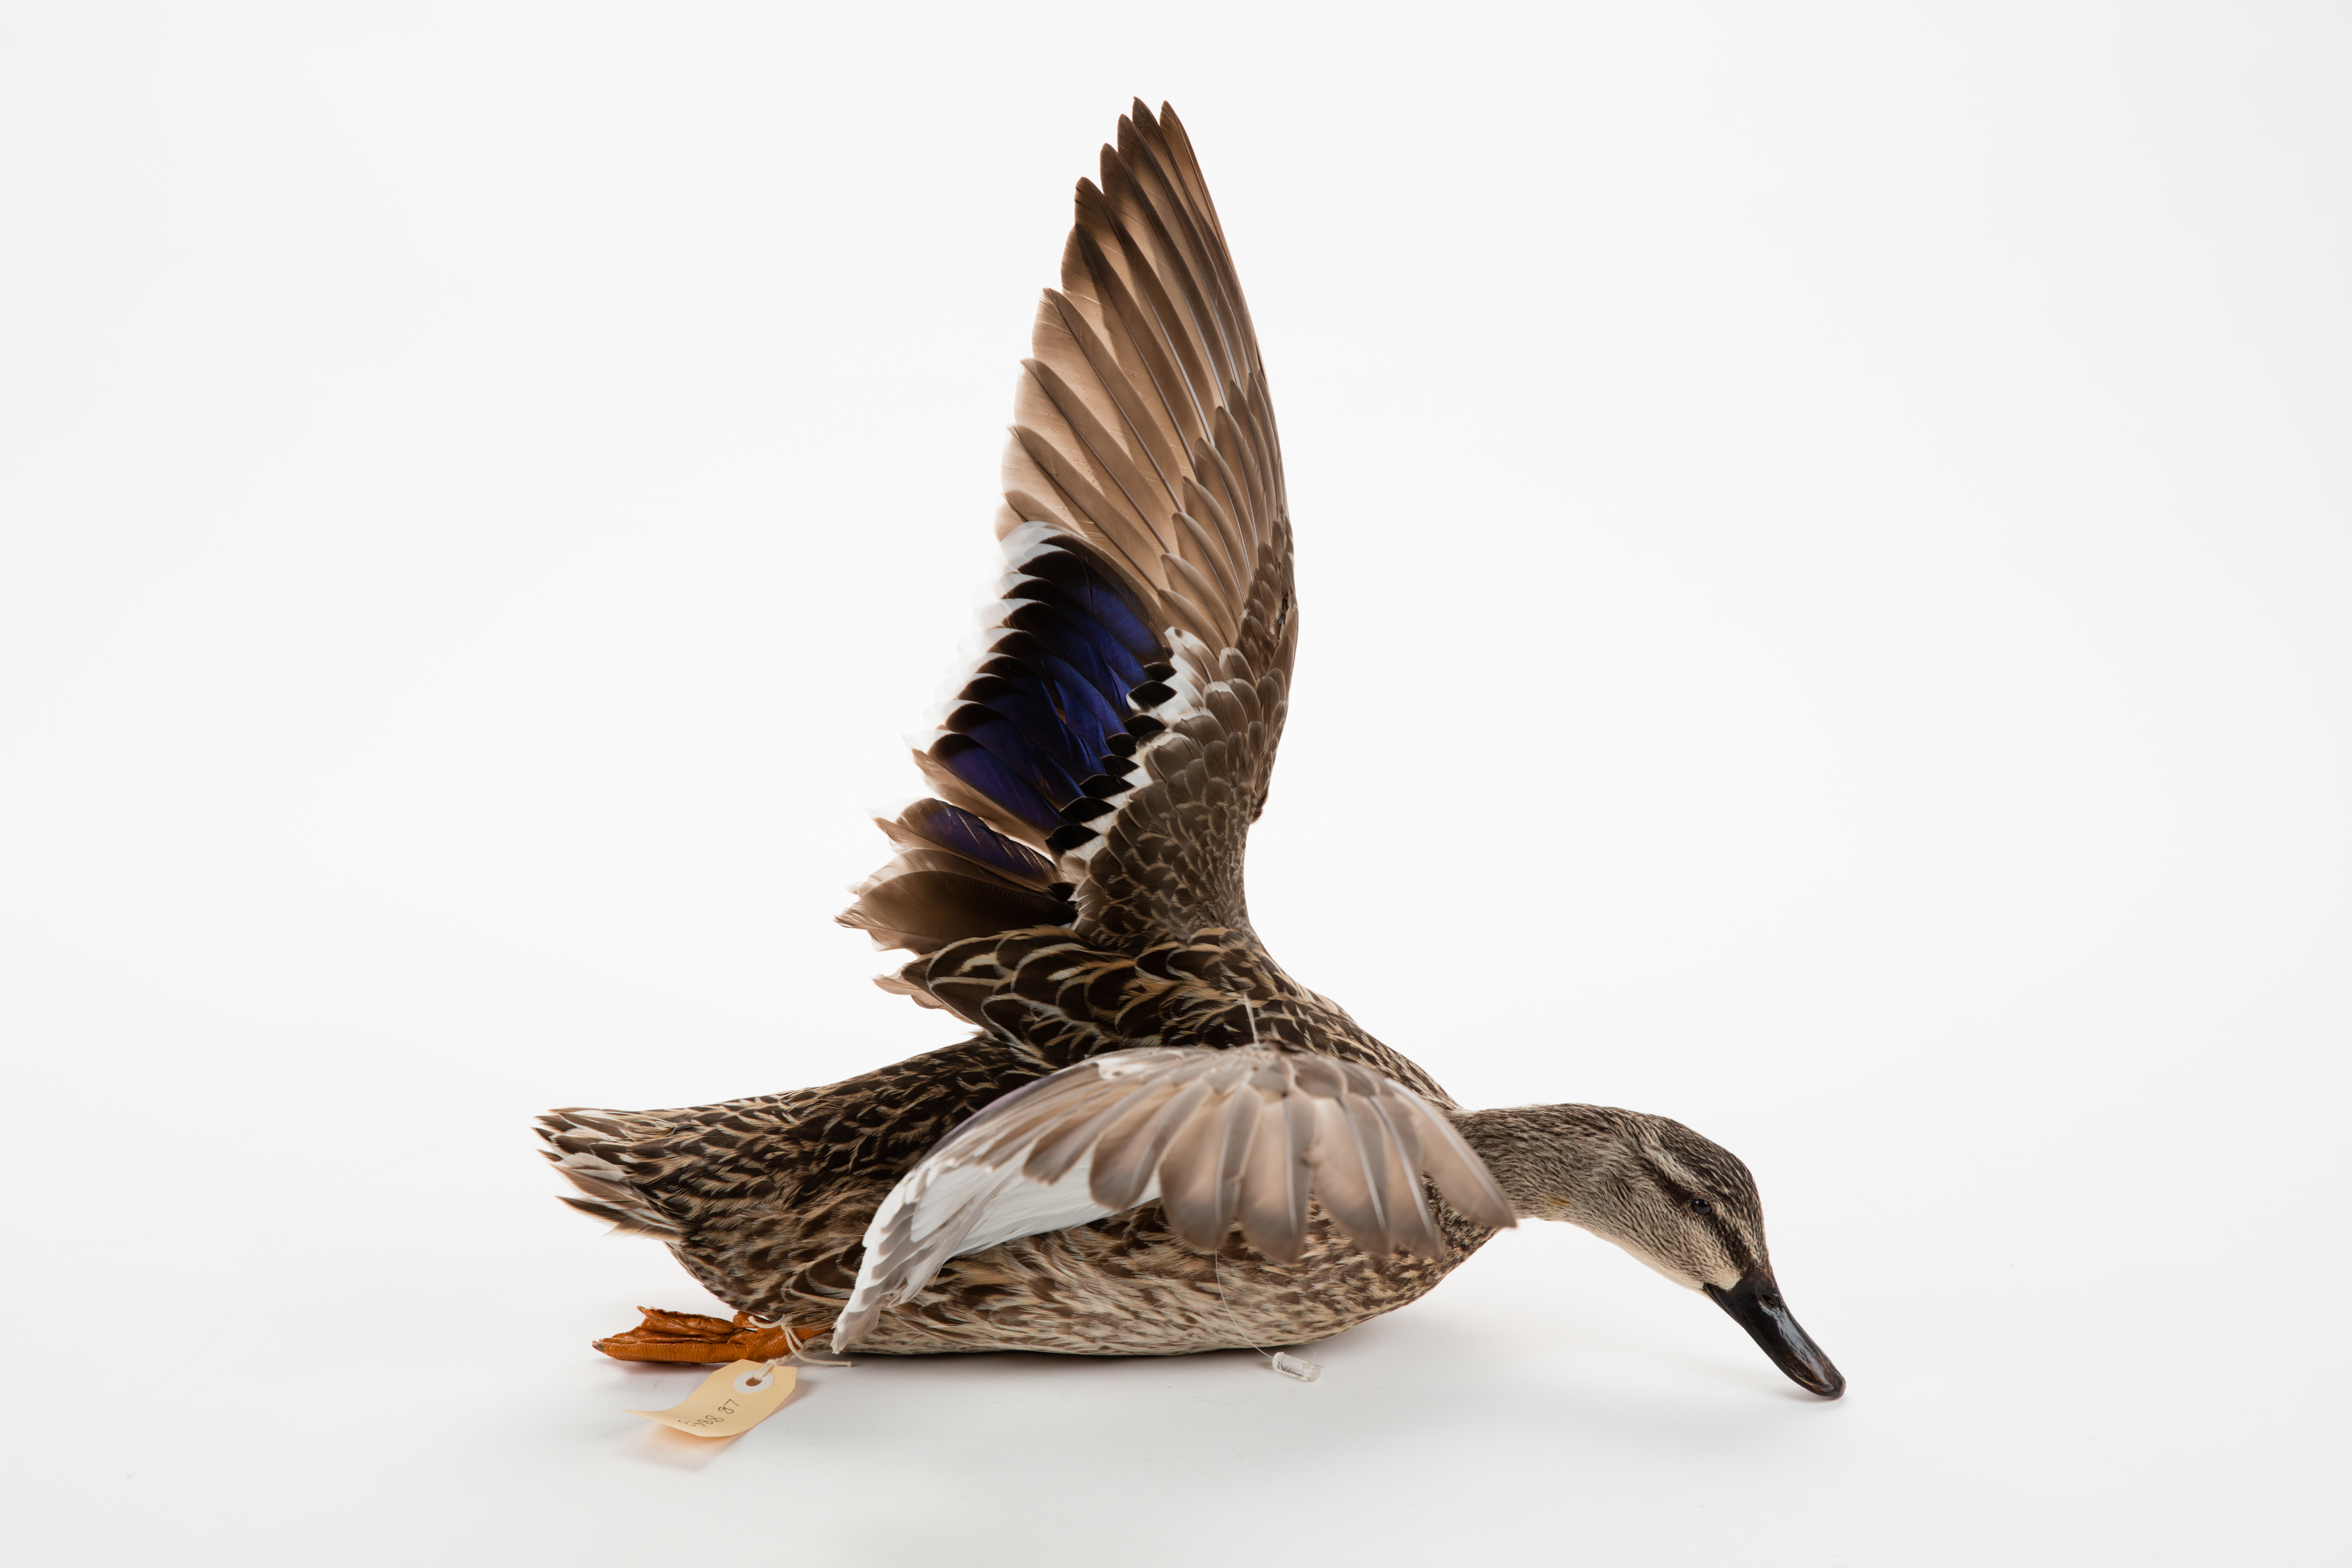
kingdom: Animalia
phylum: Chordata
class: Aves
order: Anseriformes
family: Anatidae
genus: Anas
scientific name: Anas platyrhynchos
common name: Mallard
